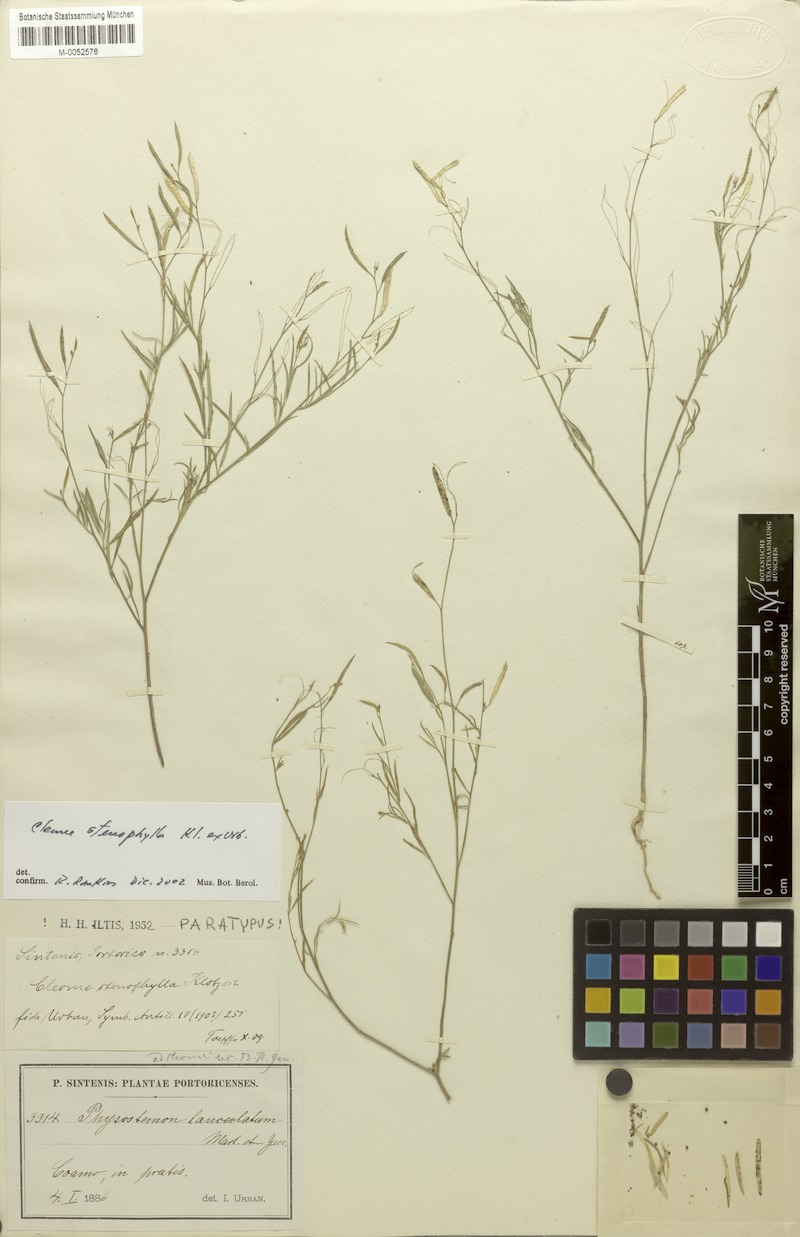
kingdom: Plantae
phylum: Tracheophyta
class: Magnoliopsida
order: Brassicales
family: Cleomaceae
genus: Physostemon
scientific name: Physostemon stenophyllus
